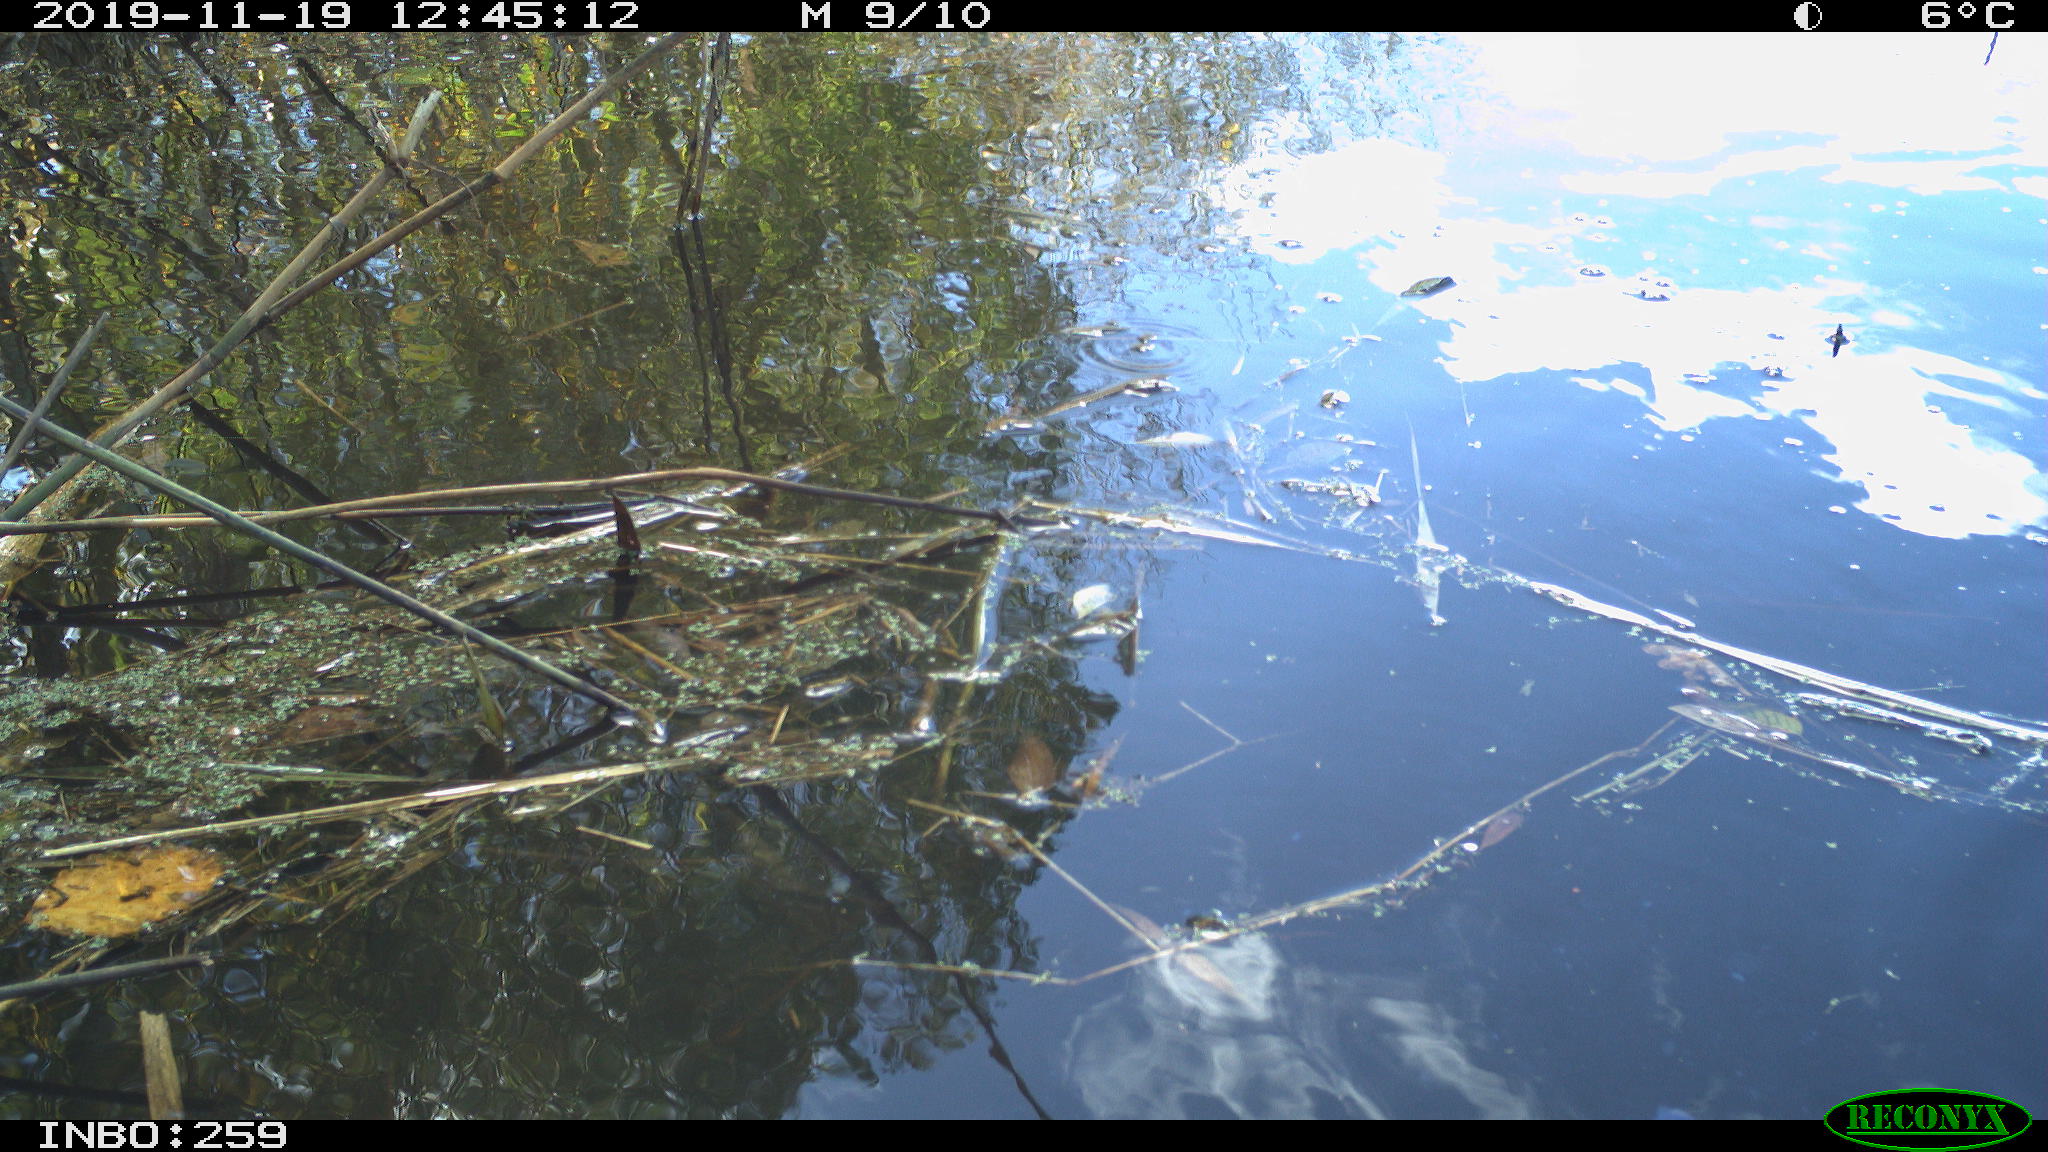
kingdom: Animalia
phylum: Chordata
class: Aves
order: Gruiformes
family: Rallidae
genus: Gallinula
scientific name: Gallinula chloropus
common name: Common moorhen
